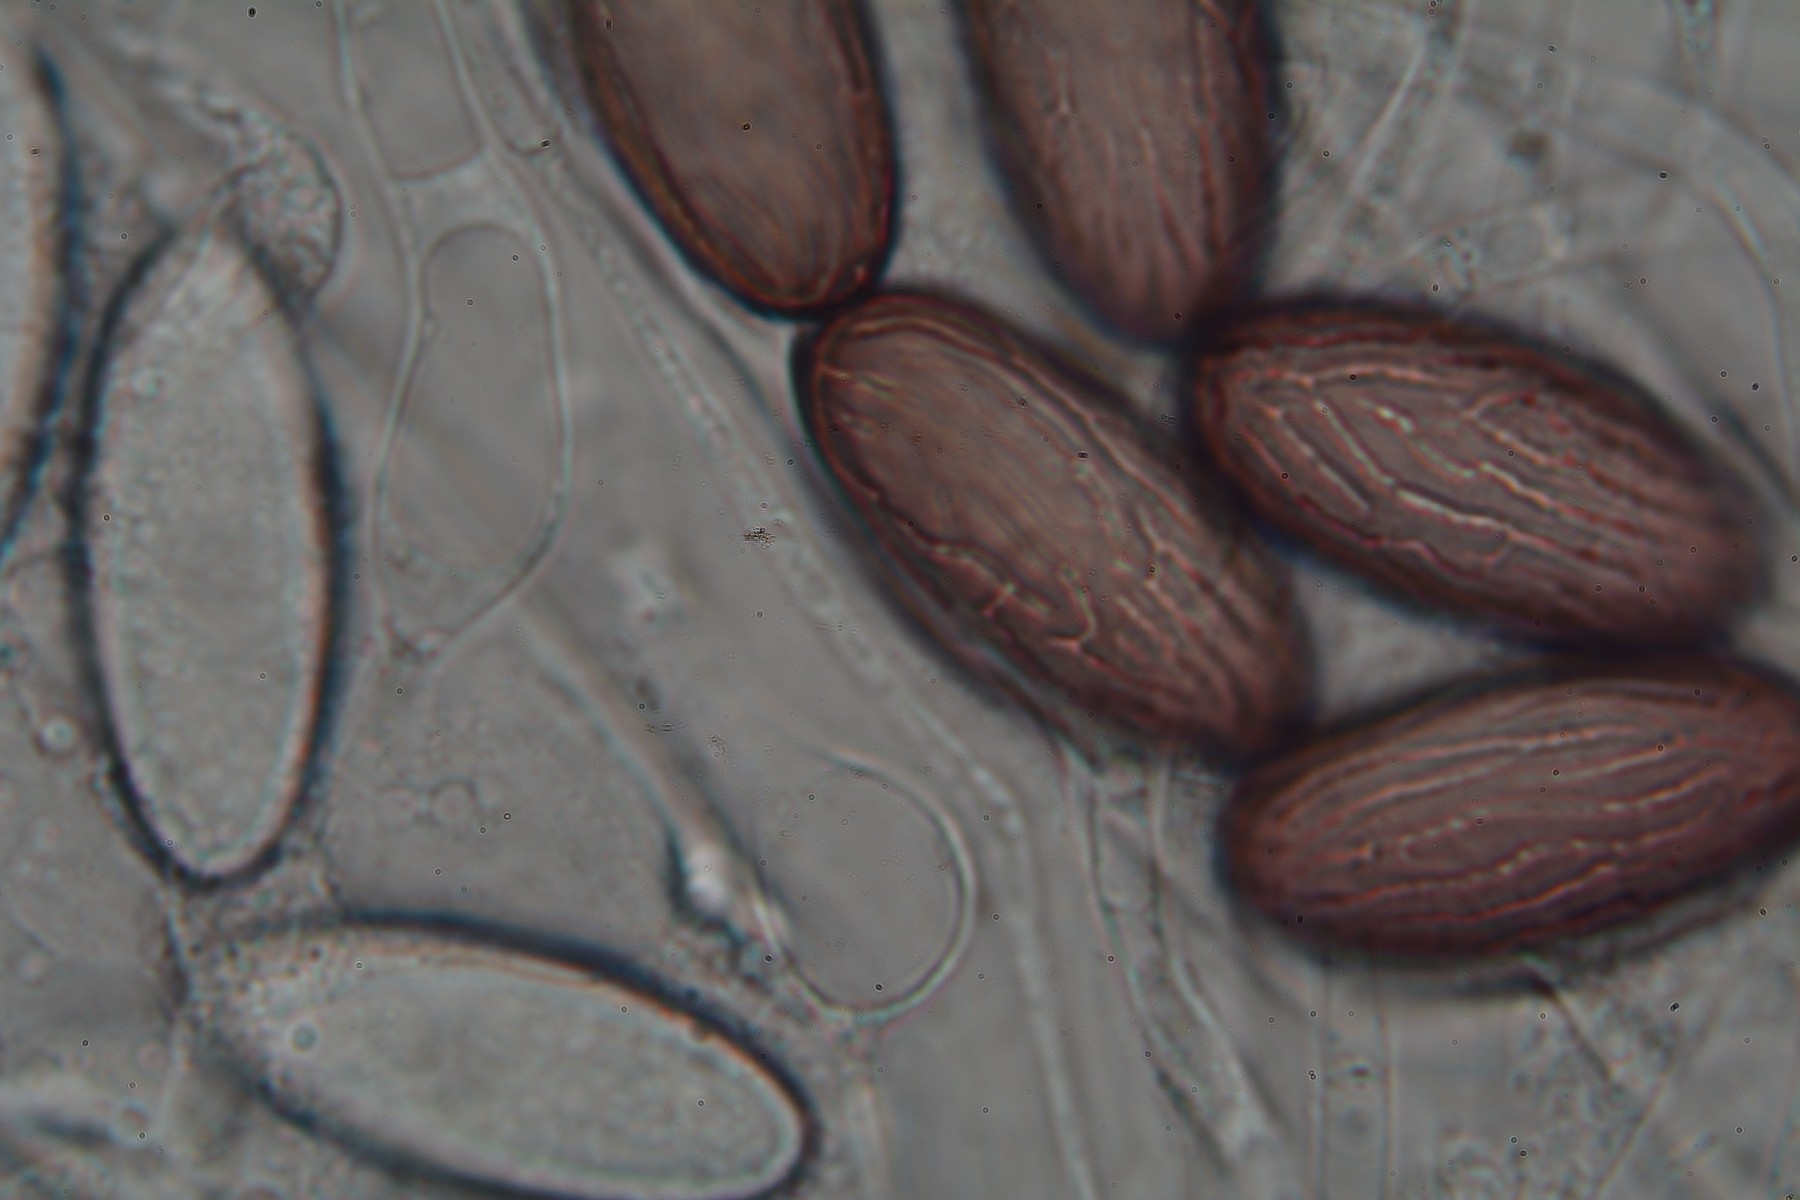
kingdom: Fungi
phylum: Ascomycota
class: Pezizomycetes
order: Pezizales
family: Ascobolaceae
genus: Ascobolus
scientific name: Ascobolus albidus
